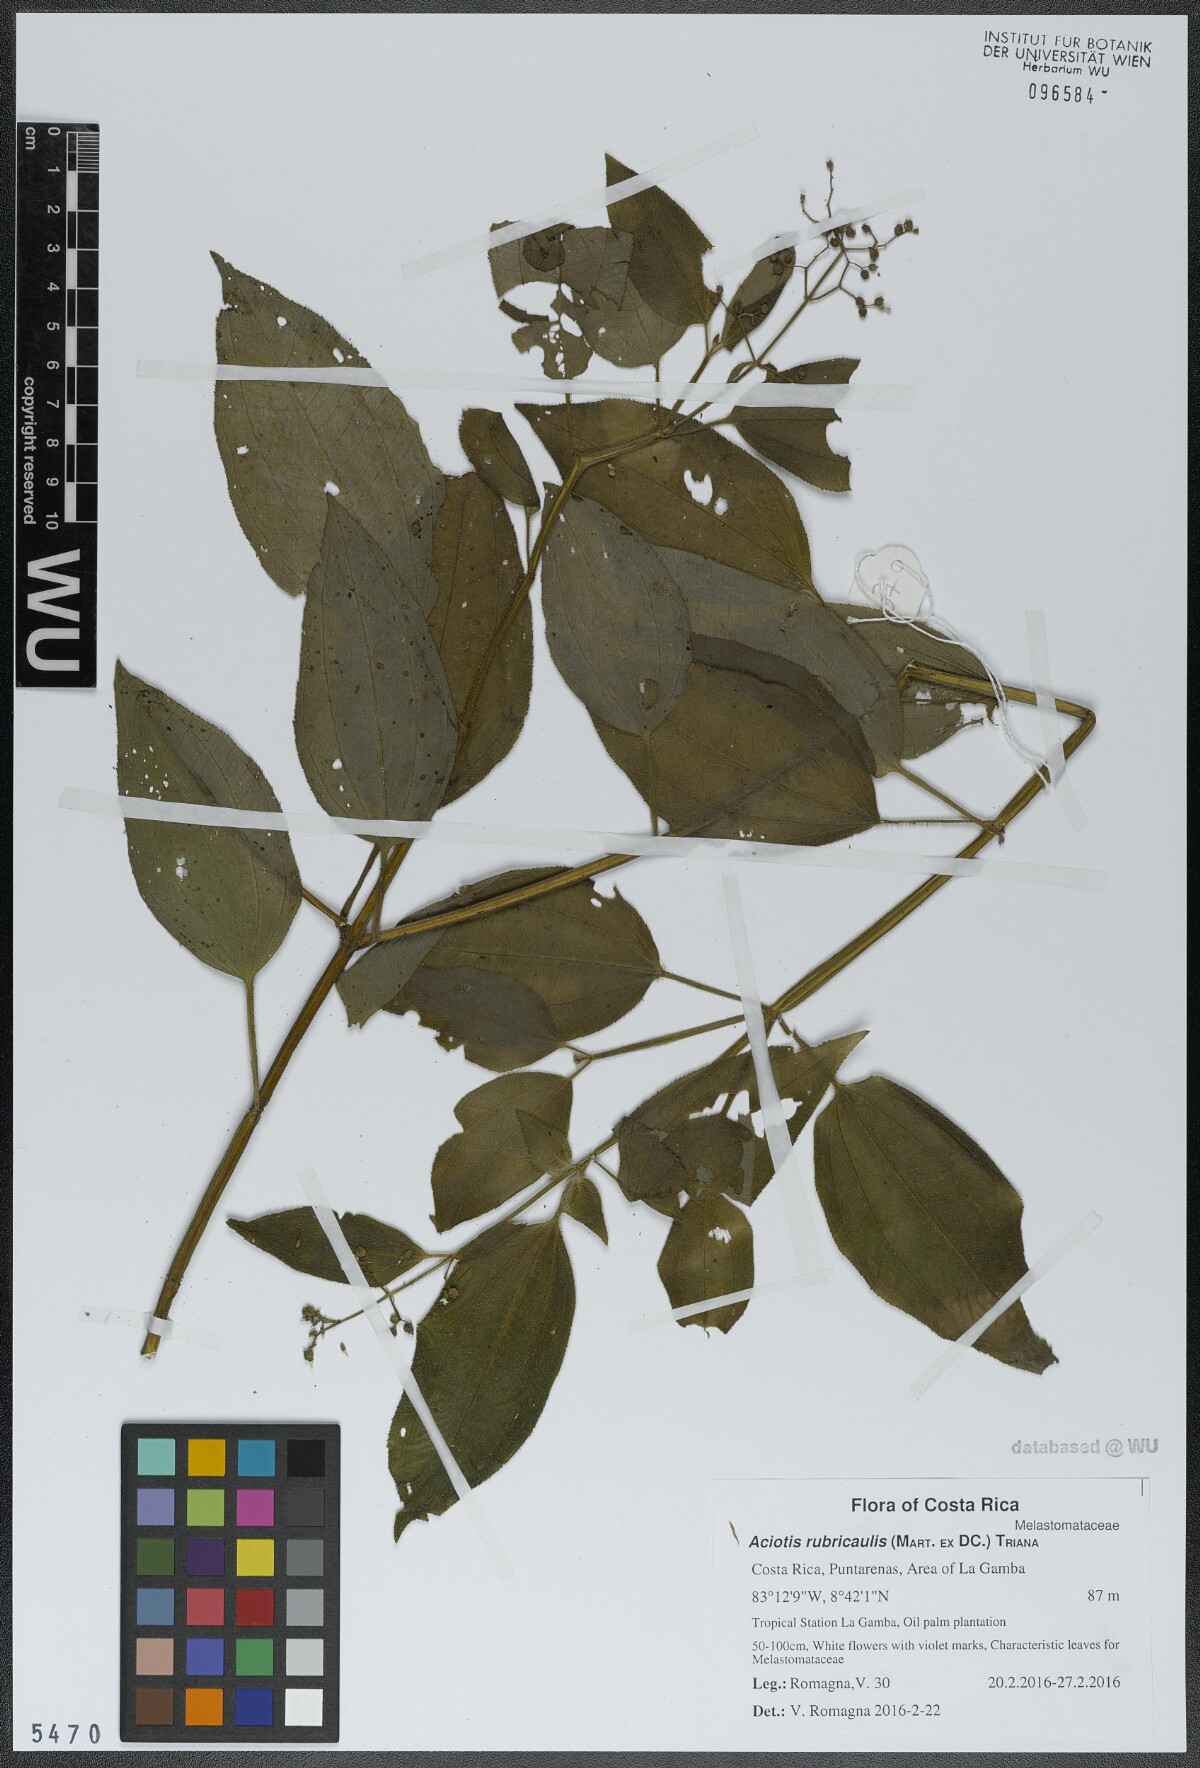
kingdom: Plantae
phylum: Tracheophyta
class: Magnoliopsida
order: Myrtales
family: Melastomataceae
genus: Aciotis
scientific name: Aciotis rubricaulis
